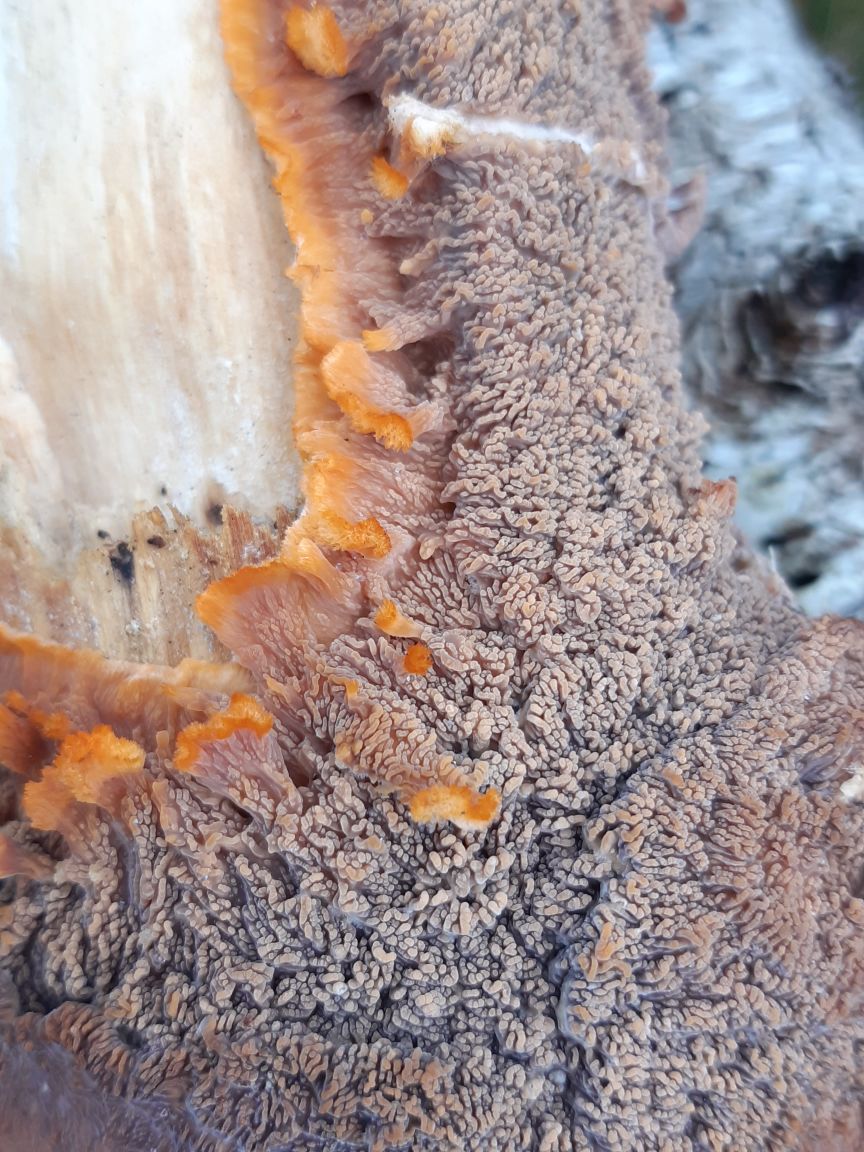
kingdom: Fungi
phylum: Basidiomycota
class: Agaricomycetes
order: Polyporales
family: Meruliaceae
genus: Phlebia
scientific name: Phlebia radiata
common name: stråle-åresvamp
